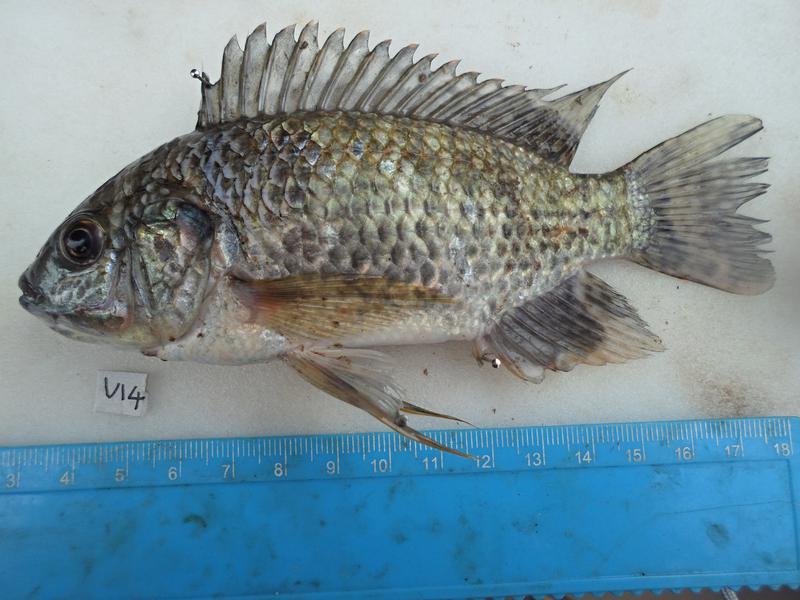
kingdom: Animalia
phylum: Chordata
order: Perciformes
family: Cichlidae
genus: Oreochromis
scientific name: Oreochromis leucostictus
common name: Blue spotted tilapia
